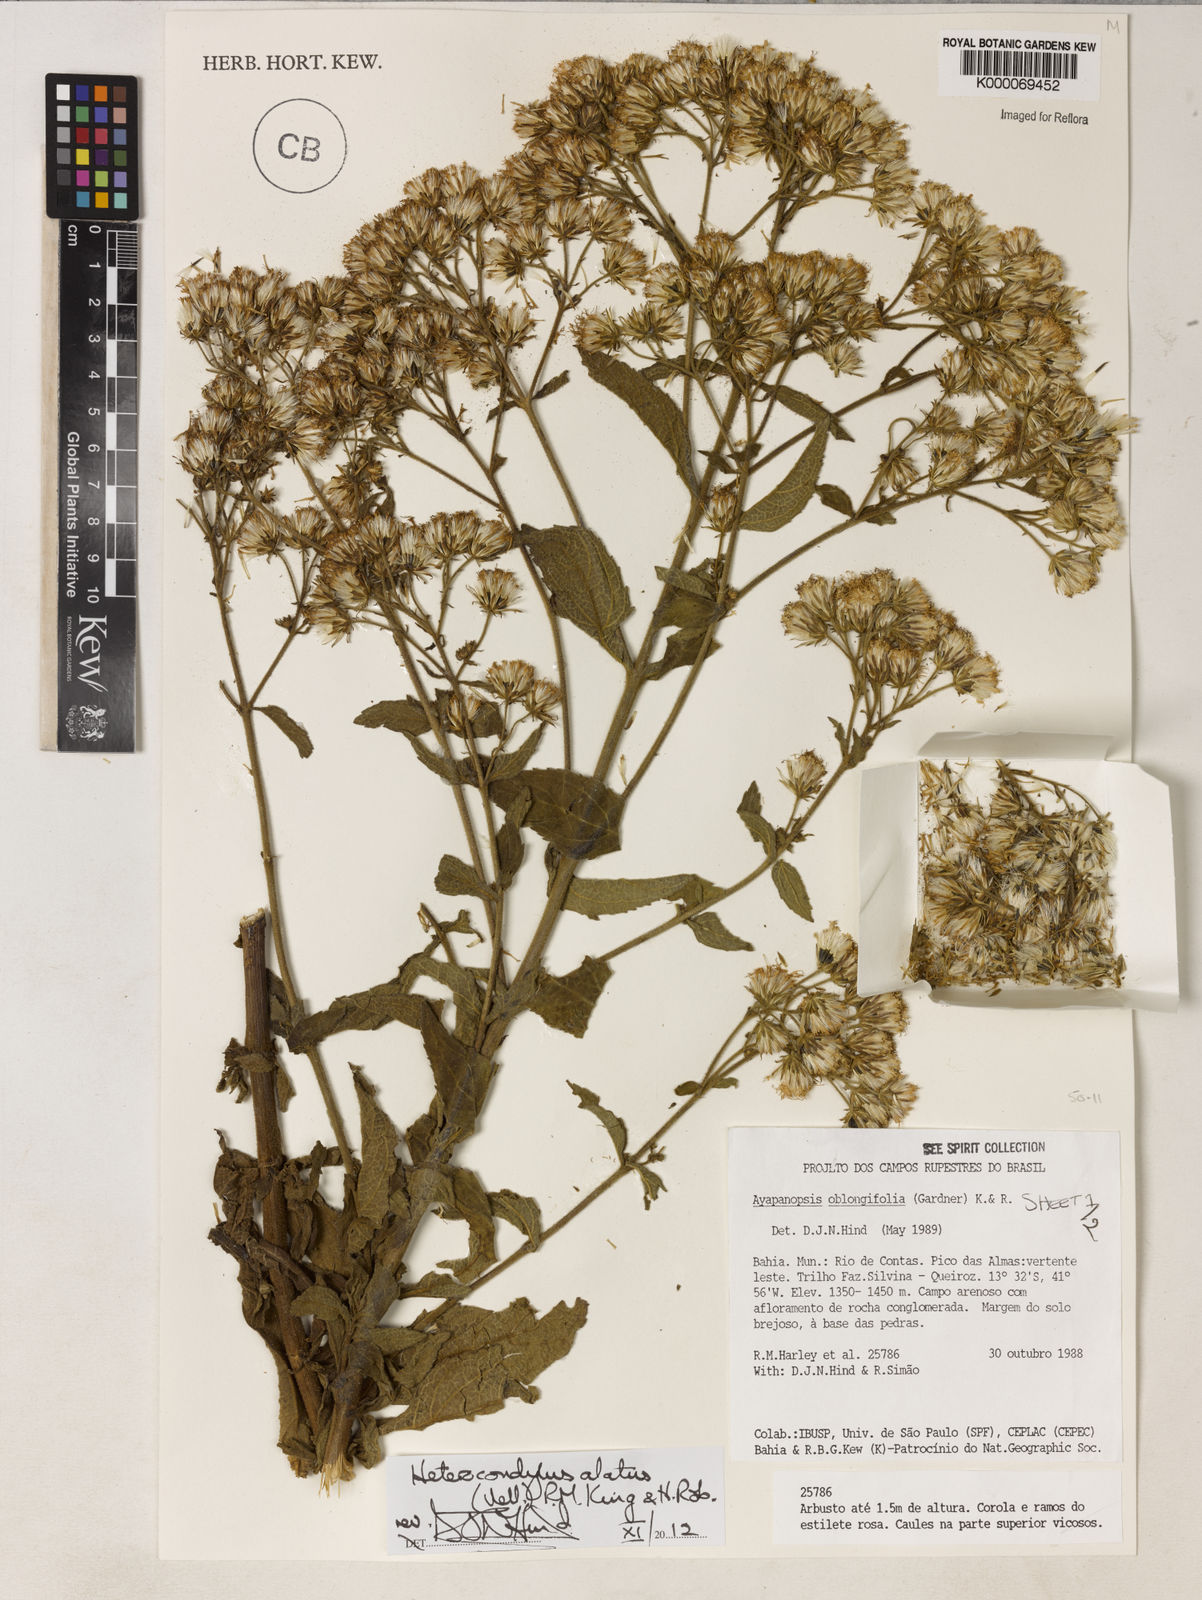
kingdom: Plantae
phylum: Tracheophyta
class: Magnoliopsida
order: Asterales
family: Asteraceae
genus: Ayapanopsis
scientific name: Ayapanopsis oblongifolia
